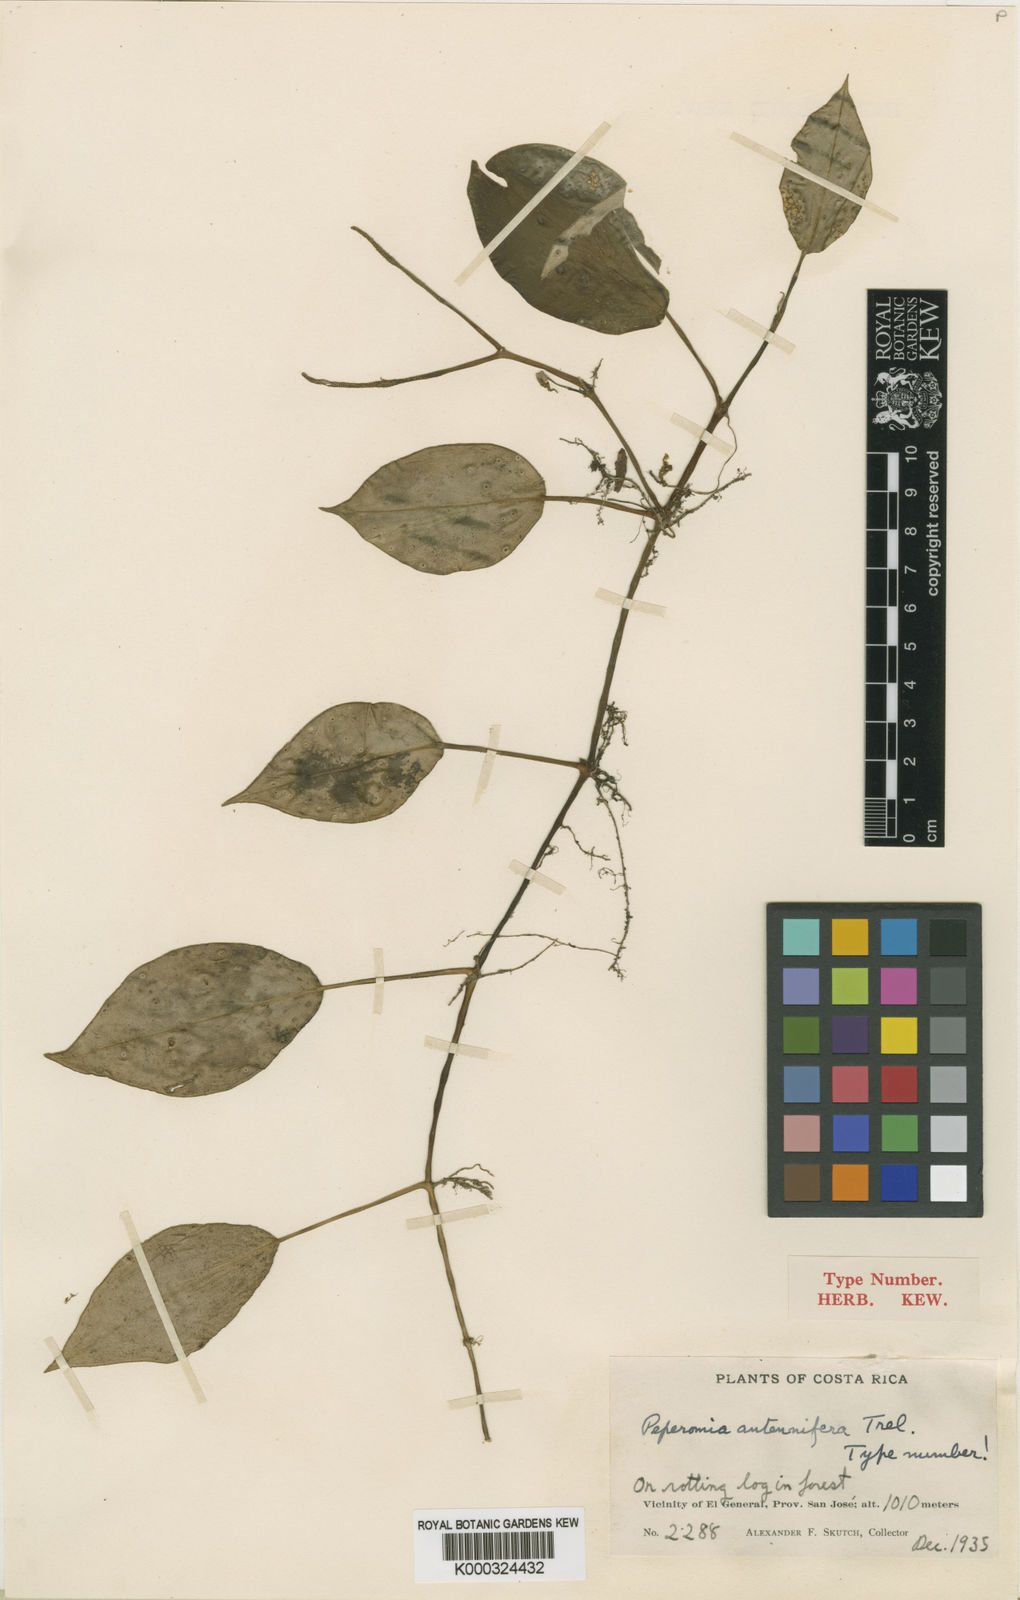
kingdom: Plantae
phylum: Tracheophyta
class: Magnoliopsida
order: Piperales
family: Piperaceae
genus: Peperomia
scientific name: Peperomia
